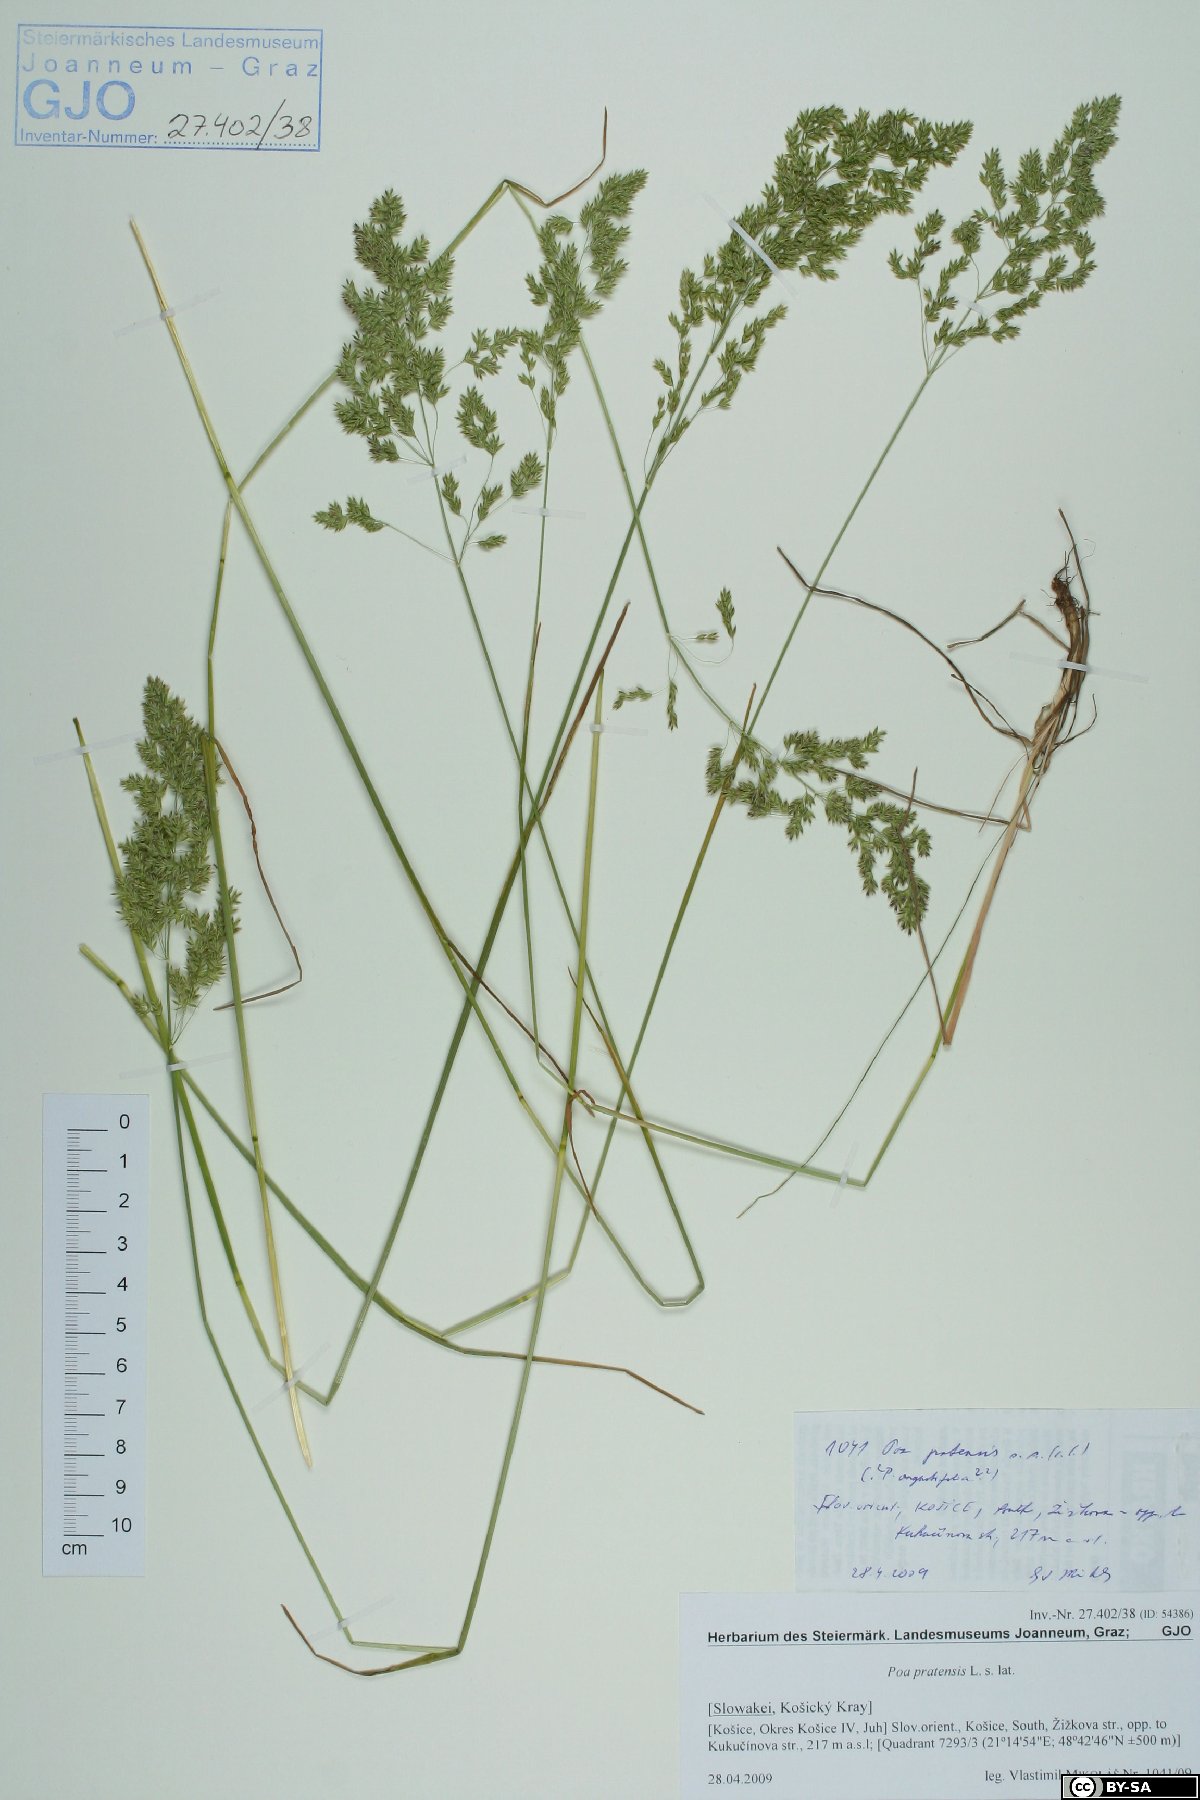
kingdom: Plantae
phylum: Tracheophyta
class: Liliopsida
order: Poales
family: Poaceae
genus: Poa
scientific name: Poa pratensis
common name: Kentucky bluegrass
